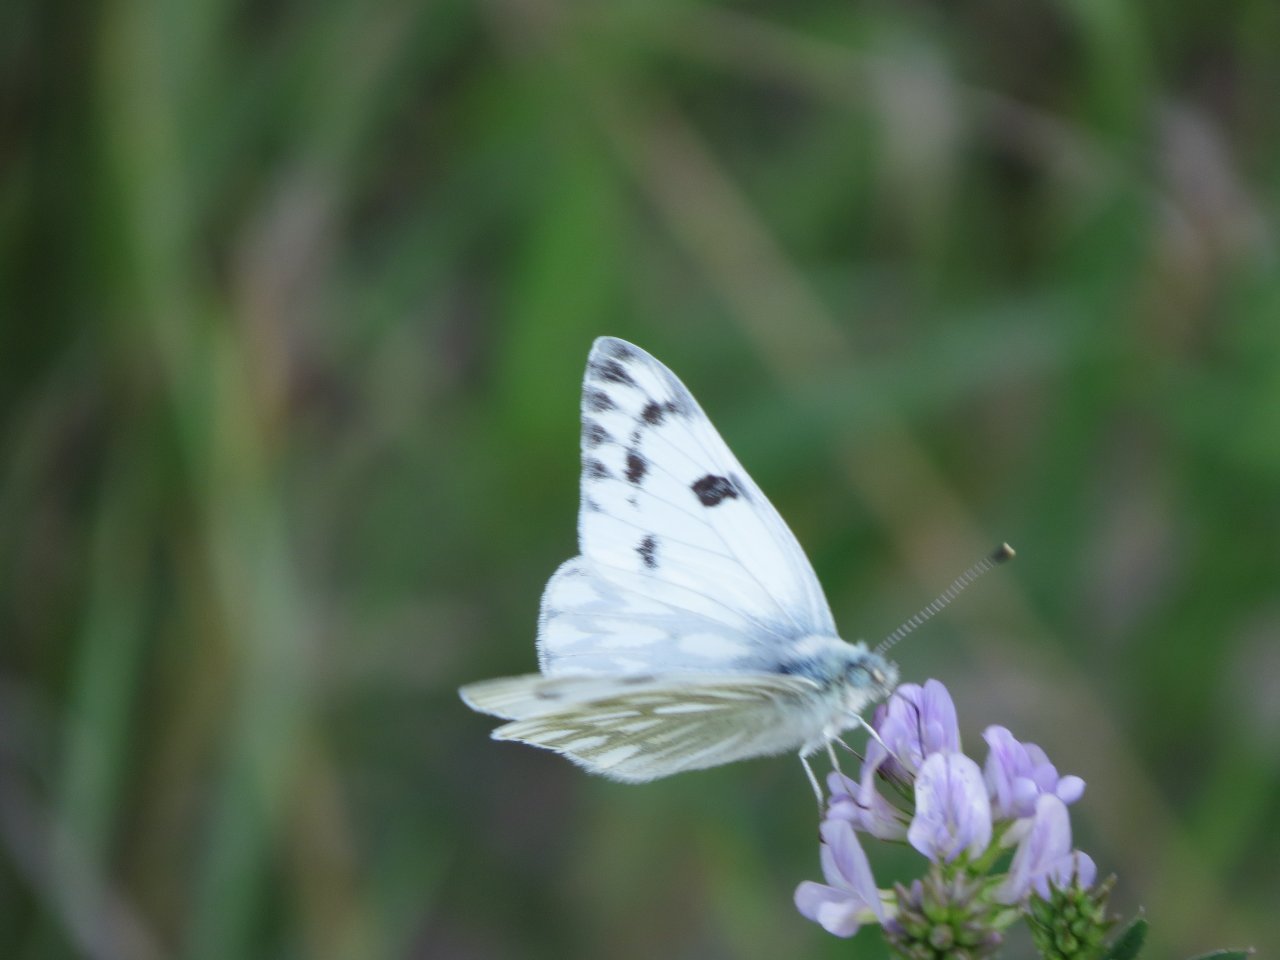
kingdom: Animalia
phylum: Arthropoda
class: Insecta
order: Lepidoptera
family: Pieridae
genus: Pontia
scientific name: Pontia occidentalis
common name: Western White
